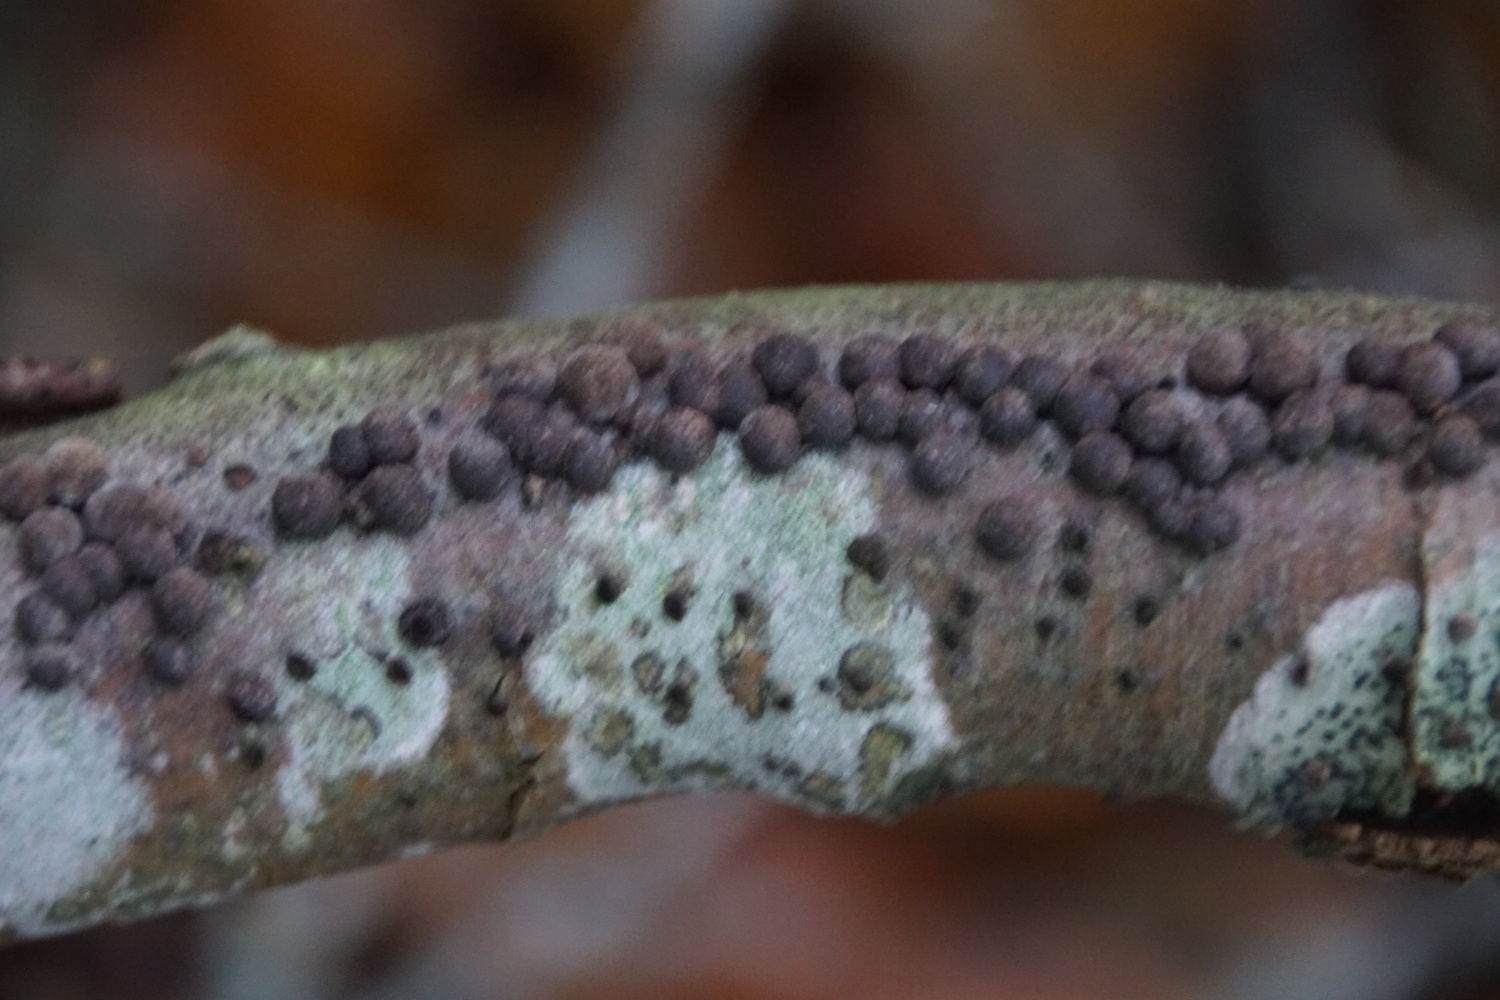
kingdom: Fungi
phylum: Ascomycota
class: Sordariomycetes
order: Xylariales
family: Hypoxylaceae
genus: Hypoxylon
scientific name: Hypoxylon fragiforme
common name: kuljordbær
